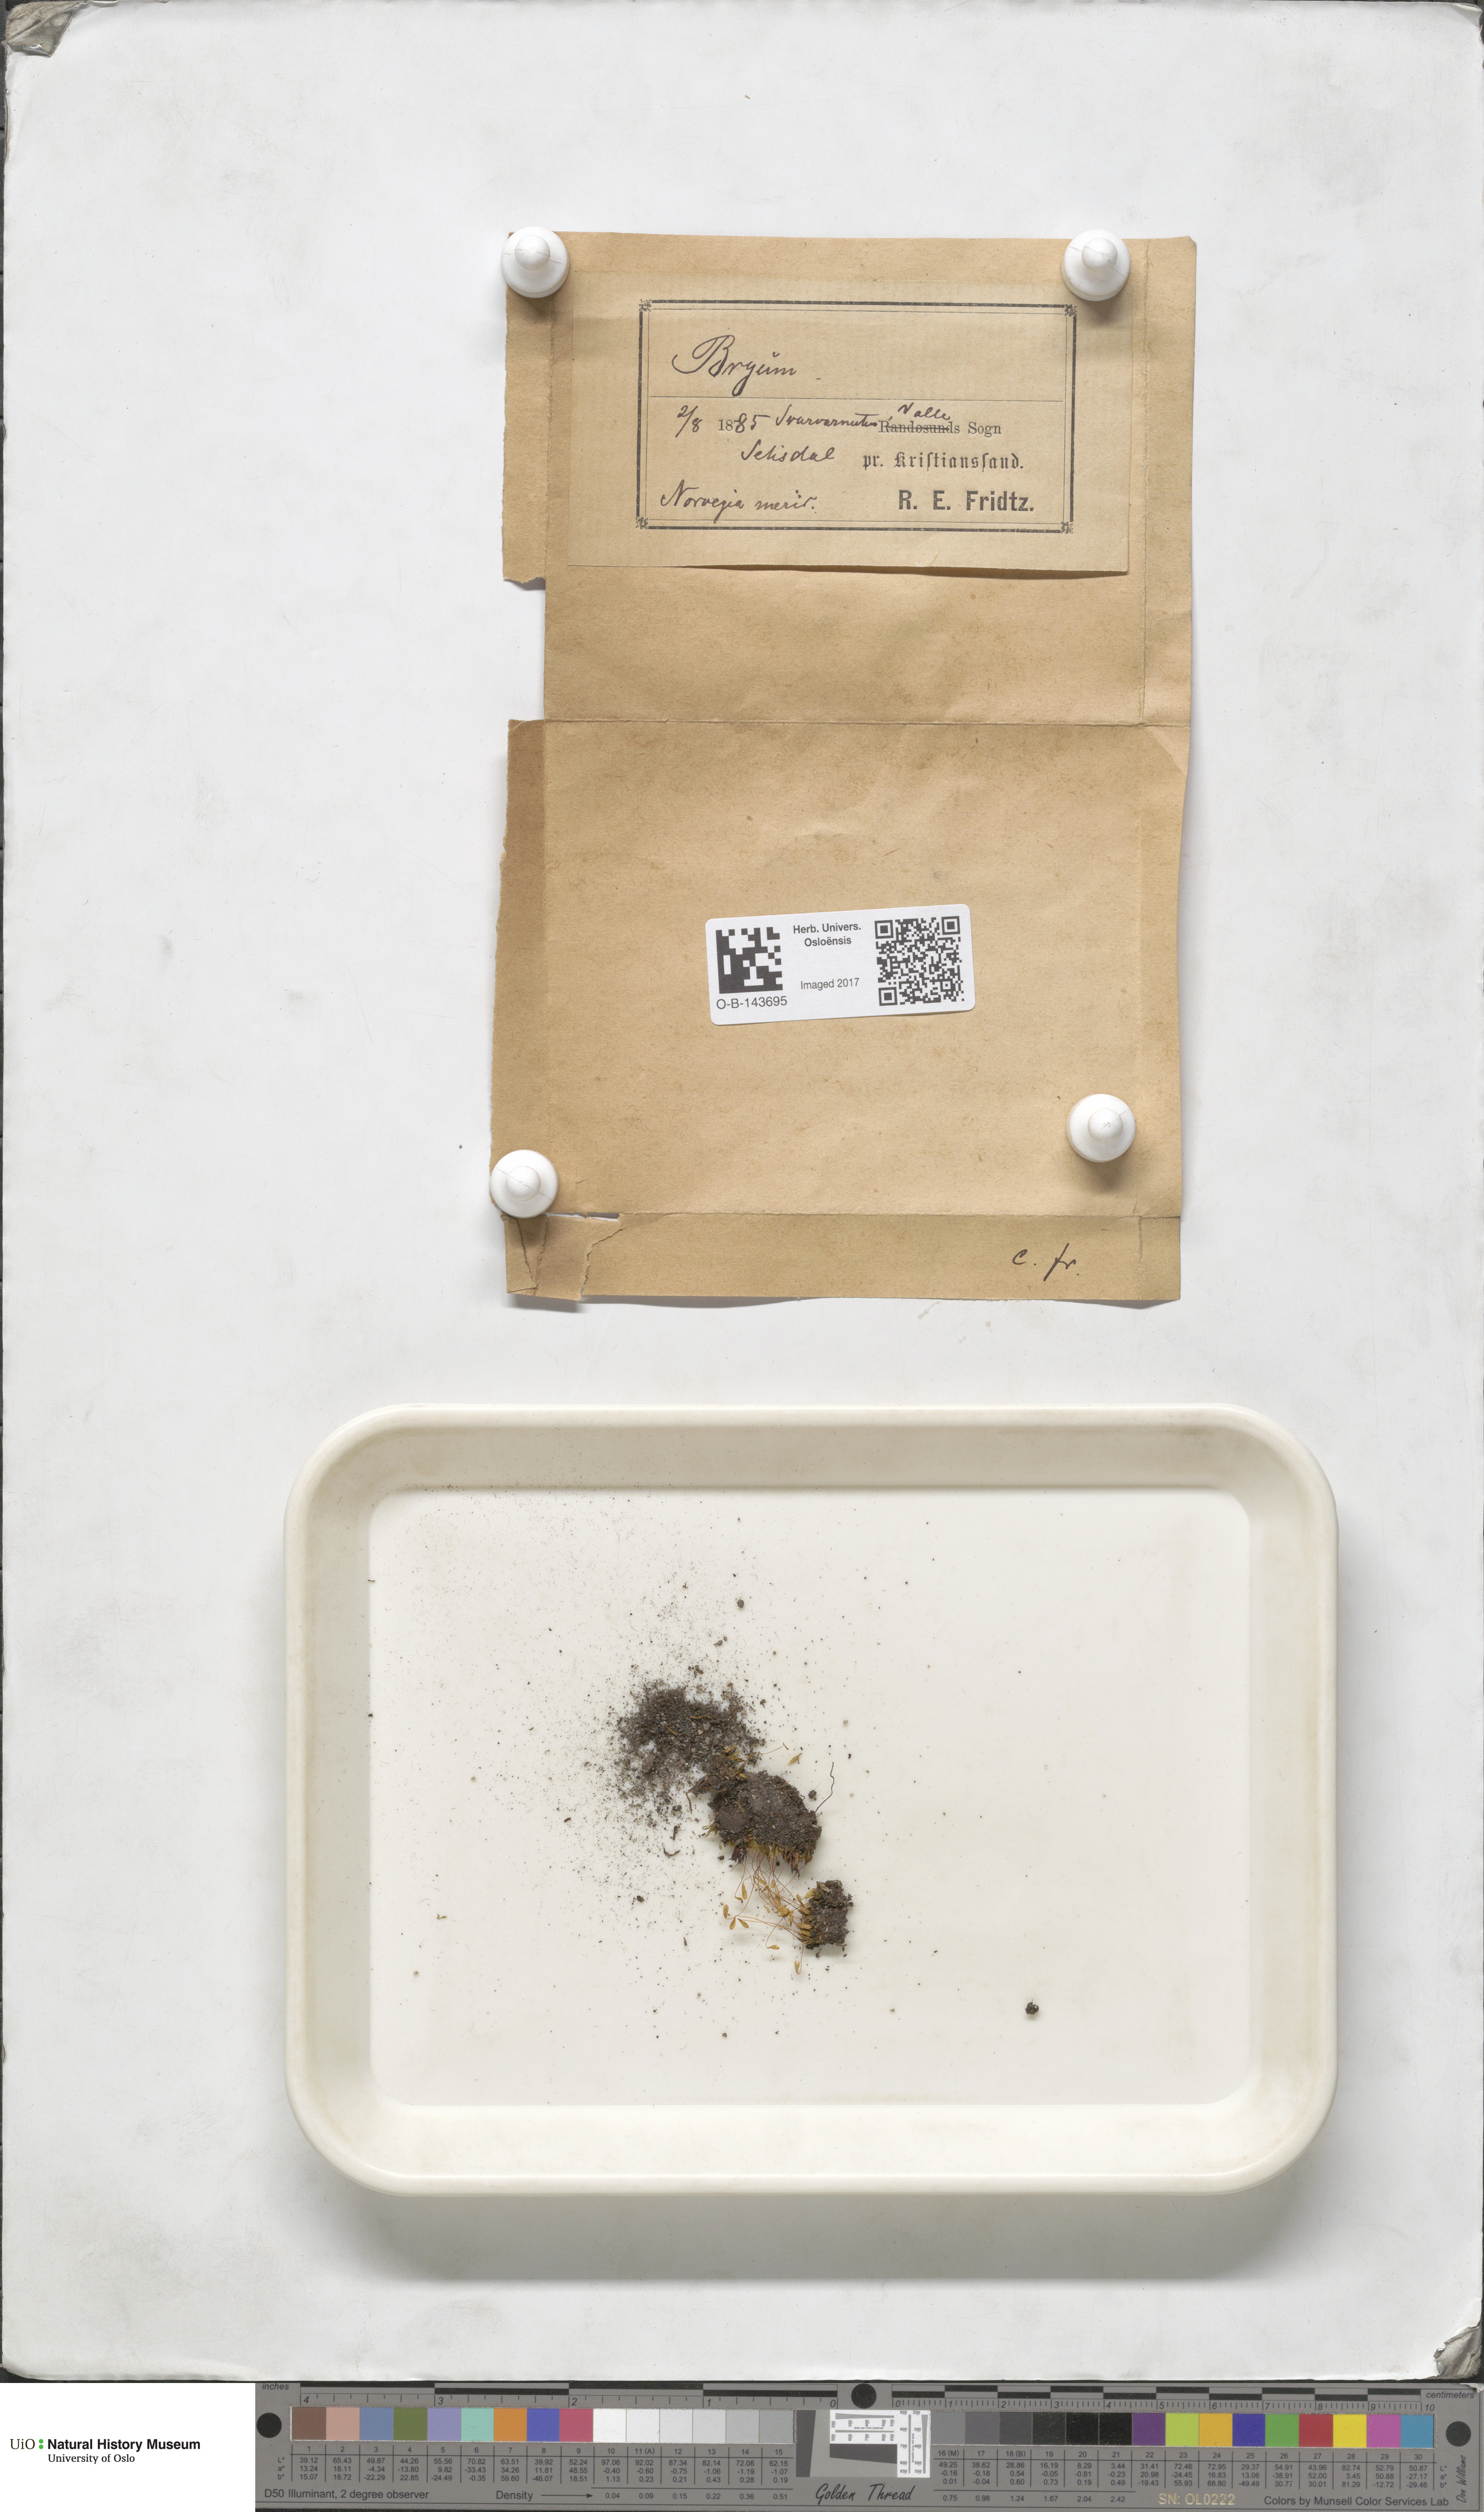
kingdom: Plantae
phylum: Bryophyta
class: Bryopsida
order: Bryales
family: Bryaceae
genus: Bryum
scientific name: Bryum
